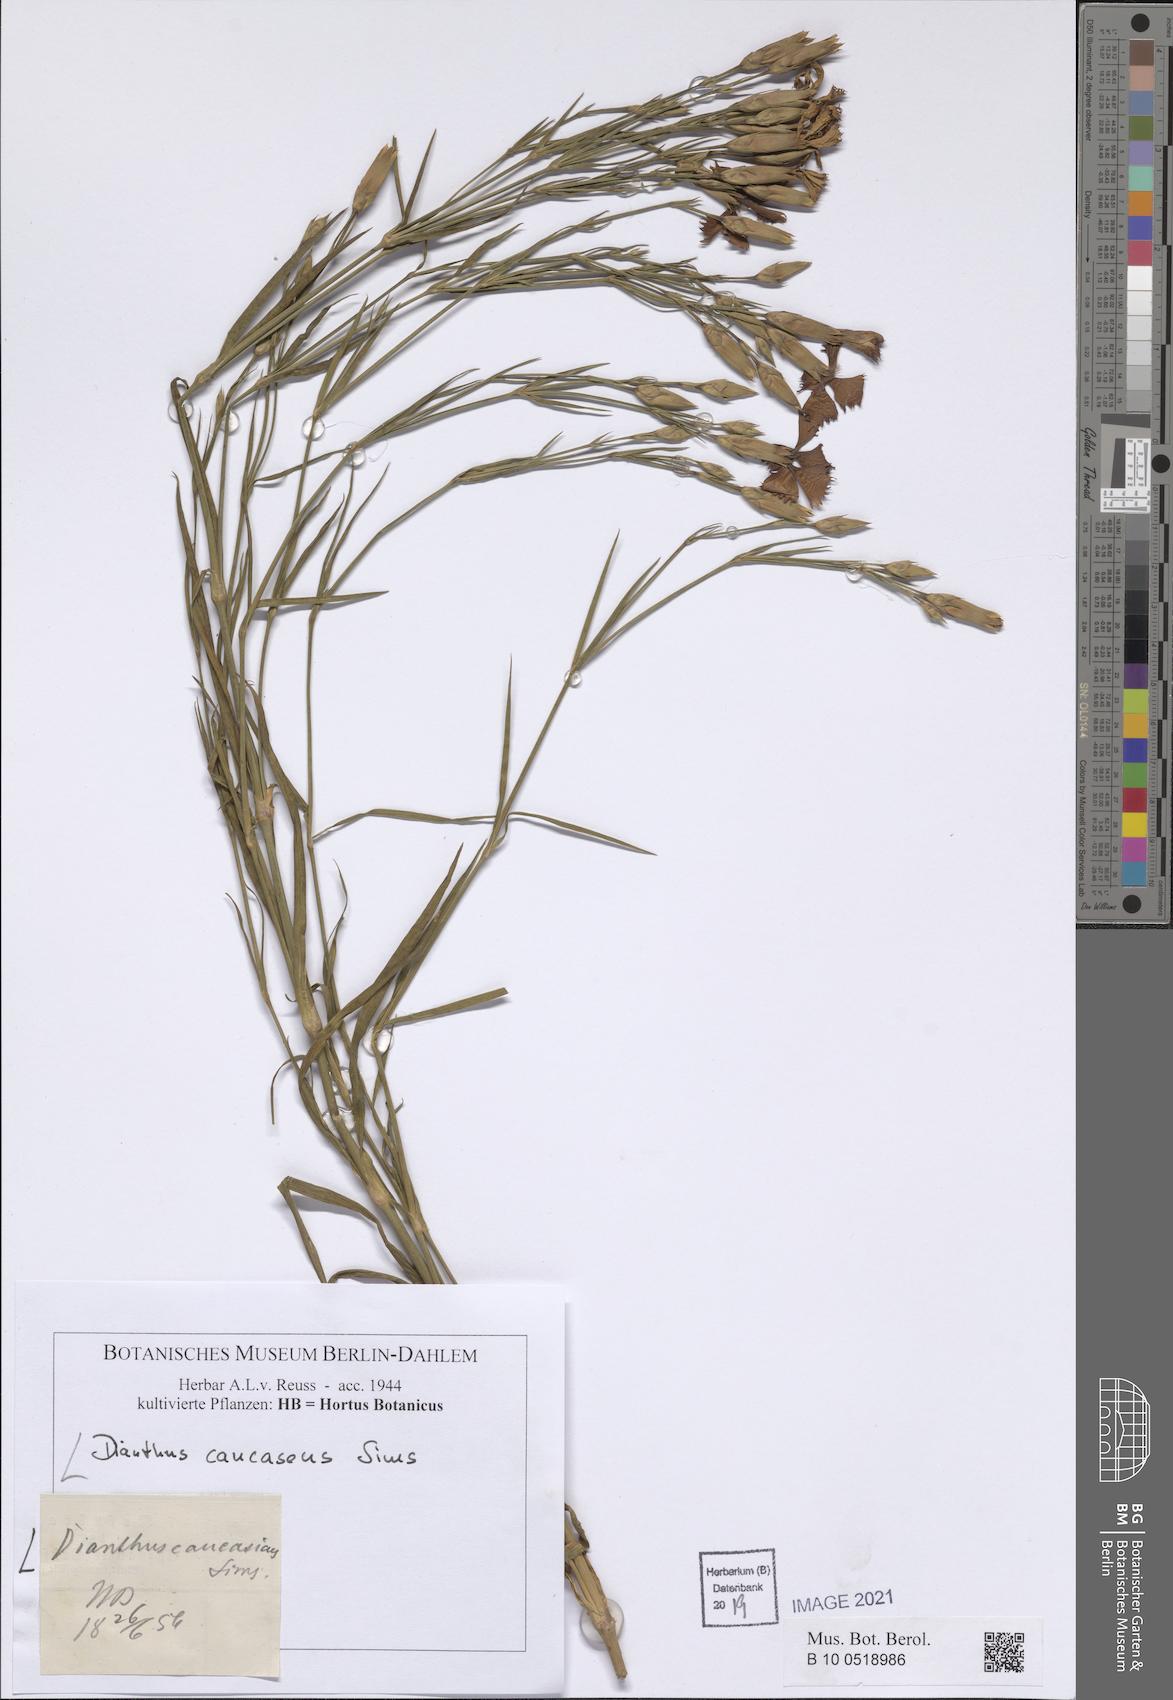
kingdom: Plantae
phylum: Tracheophyta
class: Magnoliopsida
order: Caryophyllales
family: Caryophyllaceae
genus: Dianthus
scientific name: Dianthus caucaseus
